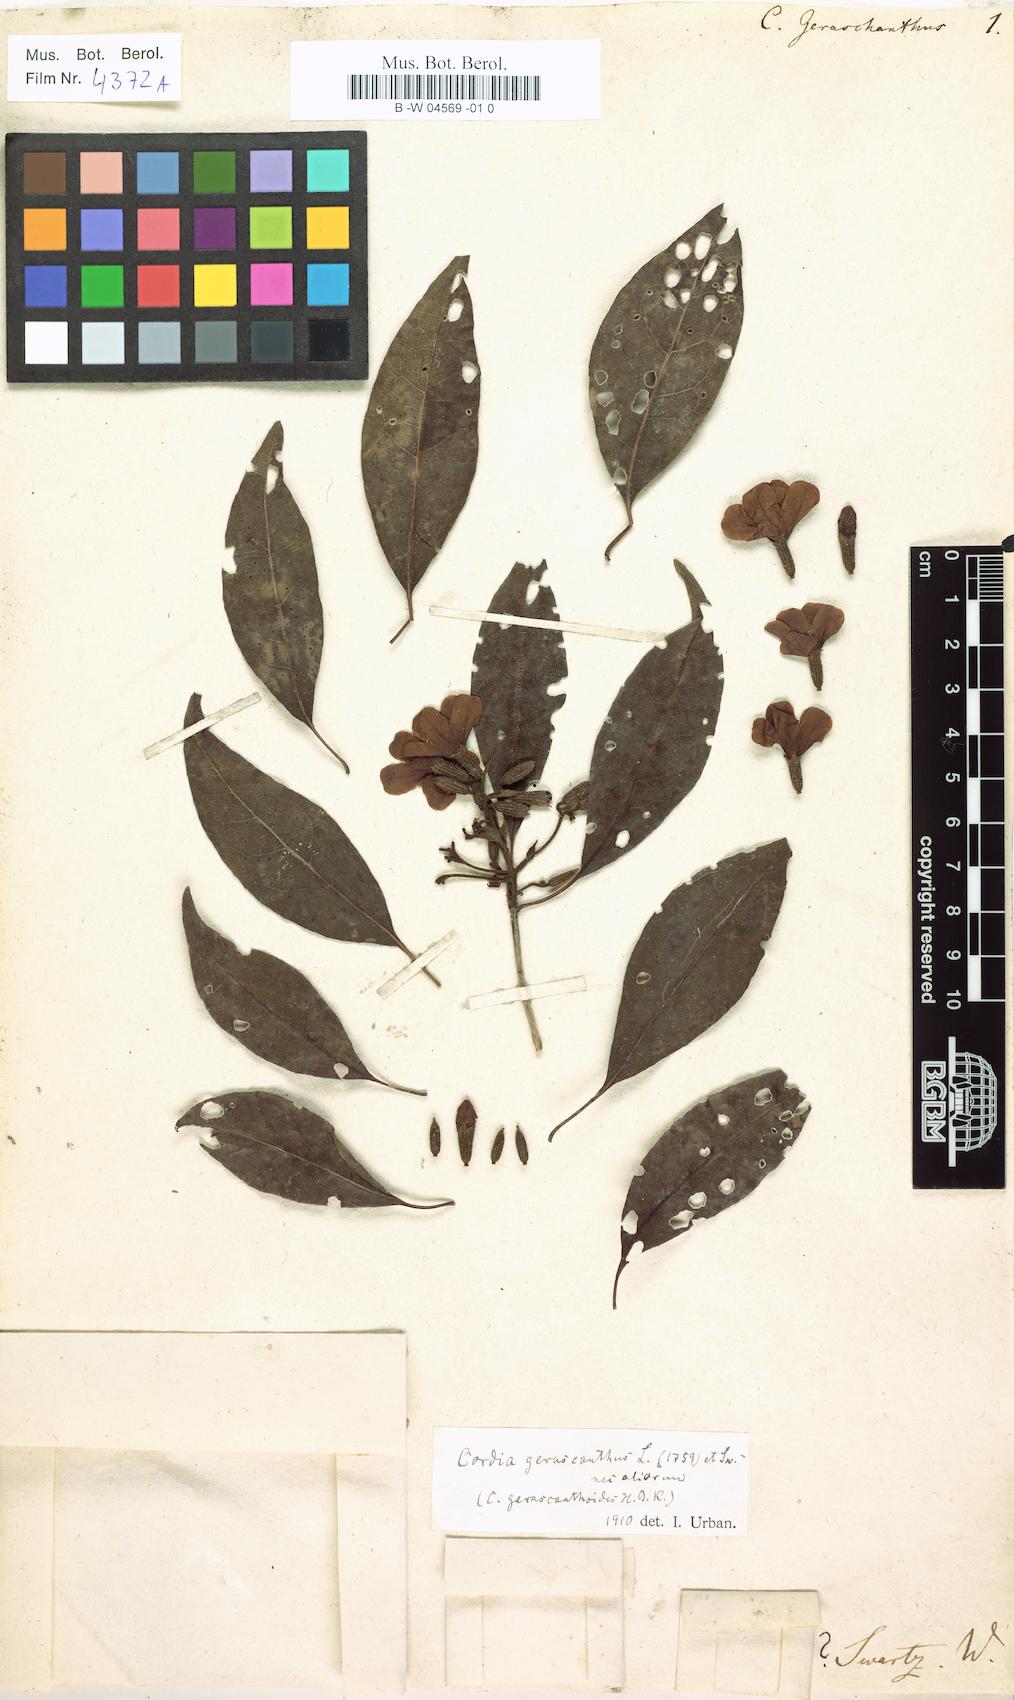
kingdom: Plantae
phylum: Tracheophyta
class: Magnoliopsida
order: Boraginales
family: Cordiaceae
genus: Cordia
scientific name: Cordia gerascanthus
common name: Baria
